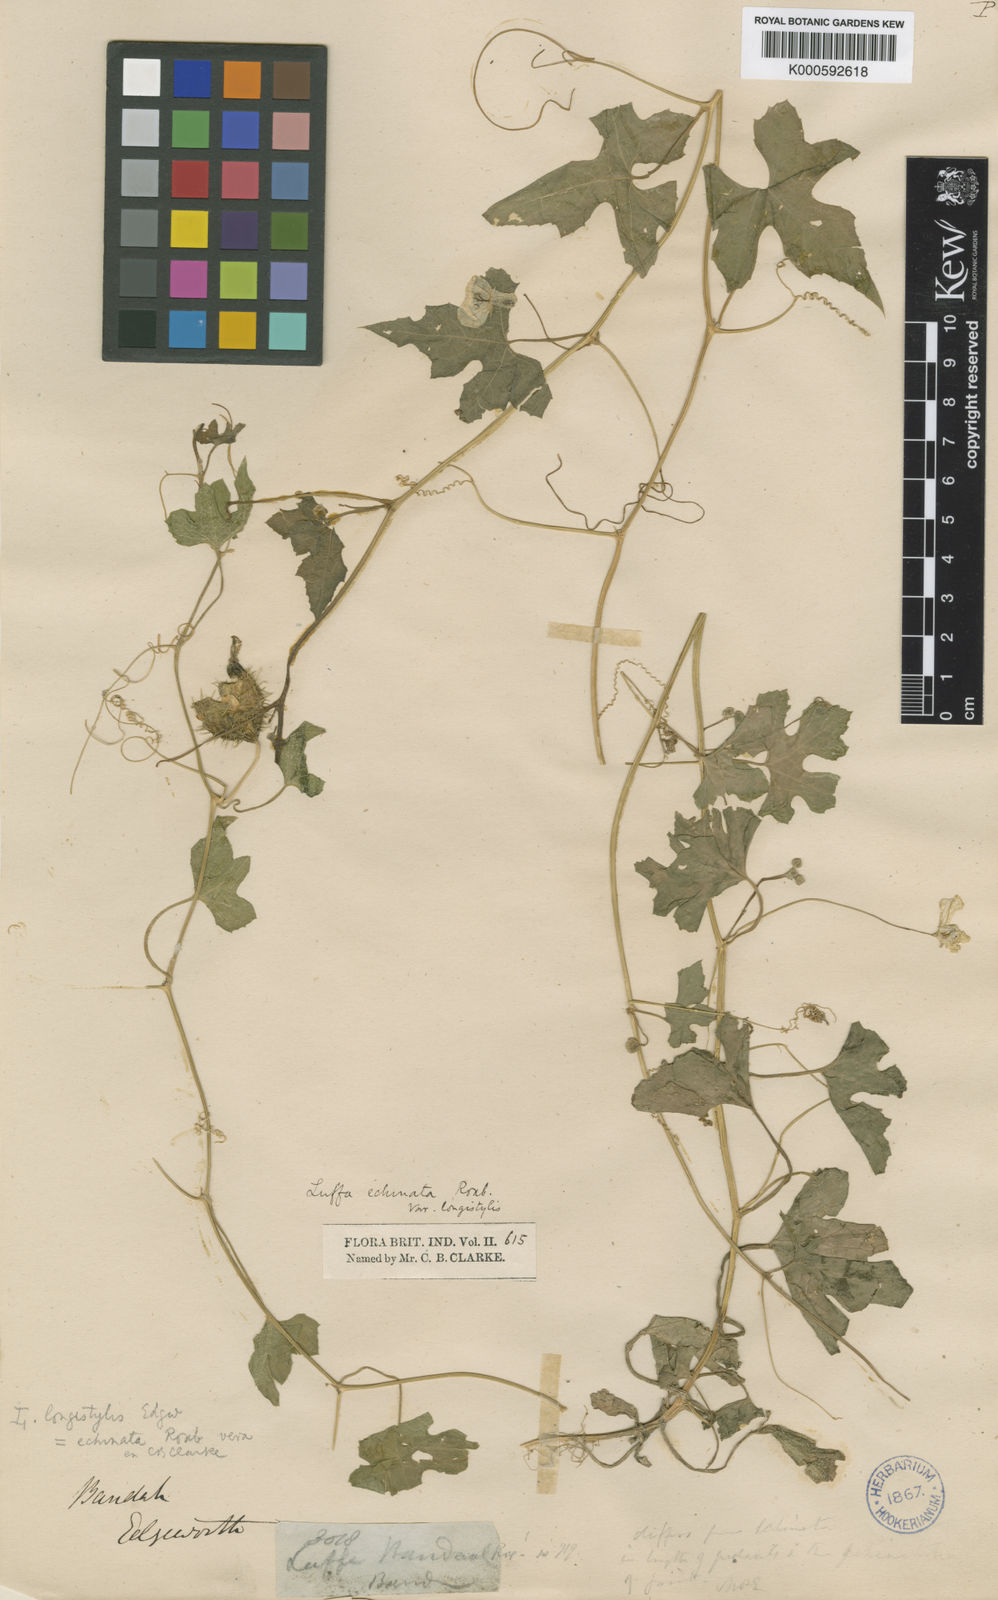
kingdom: Plantae
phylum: Tracheophyta
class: Magnoliopsida
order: Cucurbitales
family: Cucurbitaceae
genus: Luffa
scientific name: Luffa echinata
